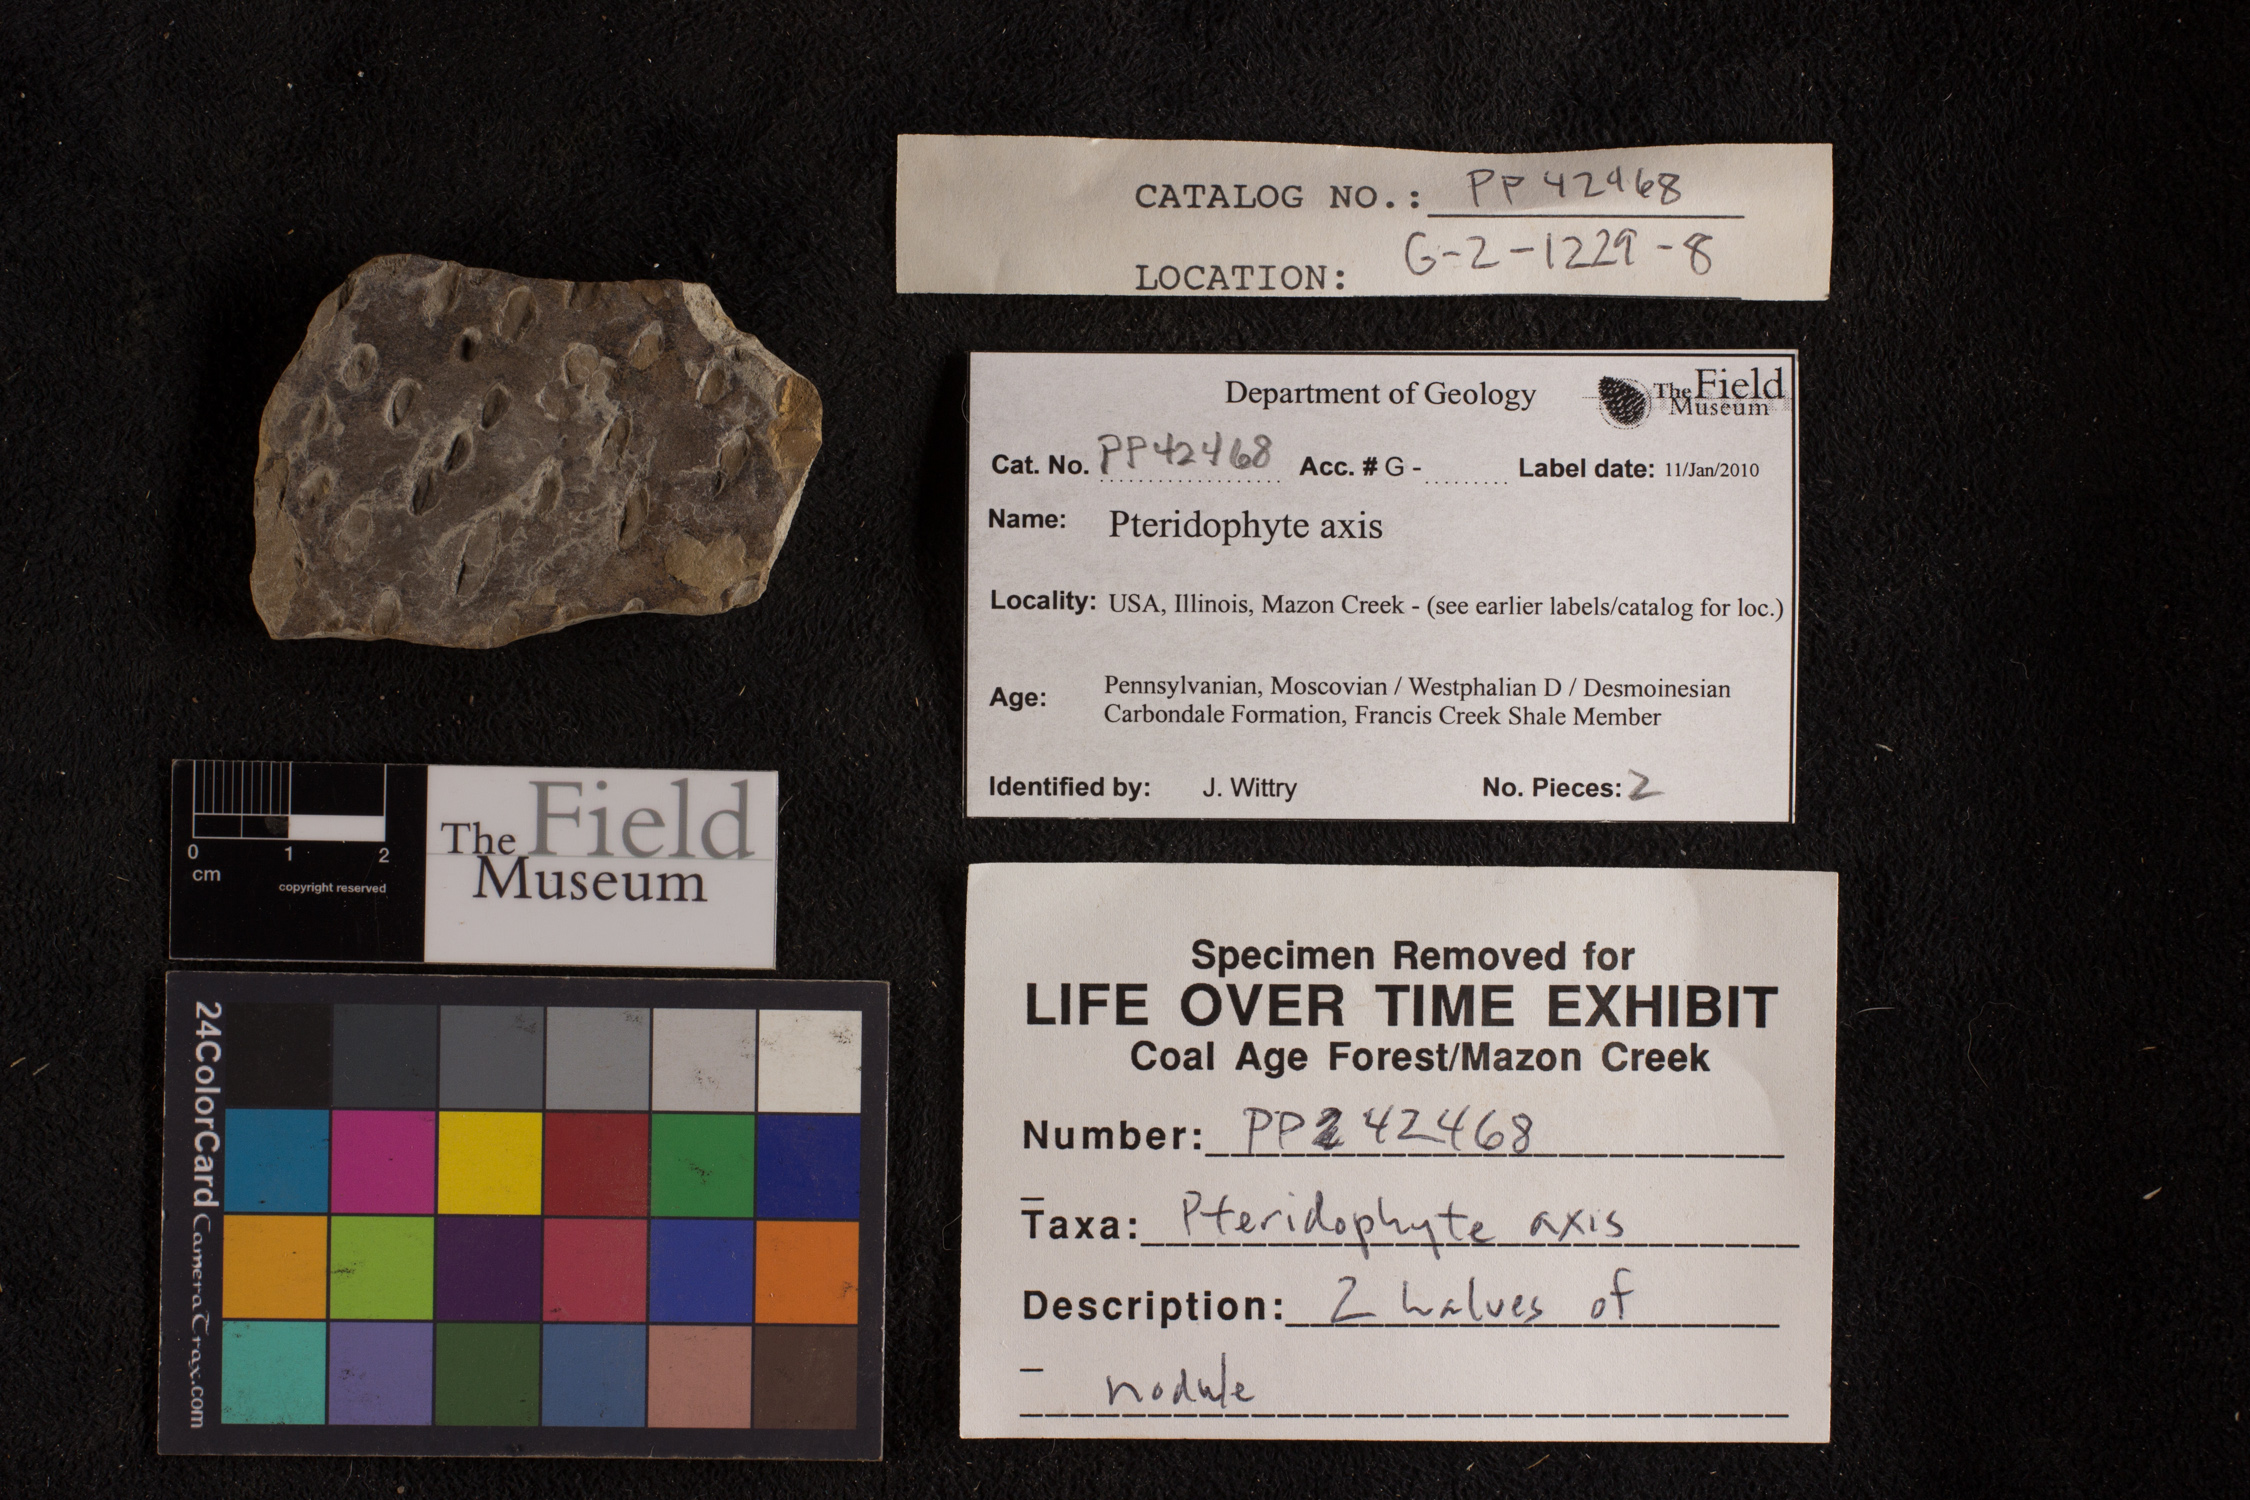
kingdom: Plantae
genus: Calamophyllites
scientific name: Calamophyllites
